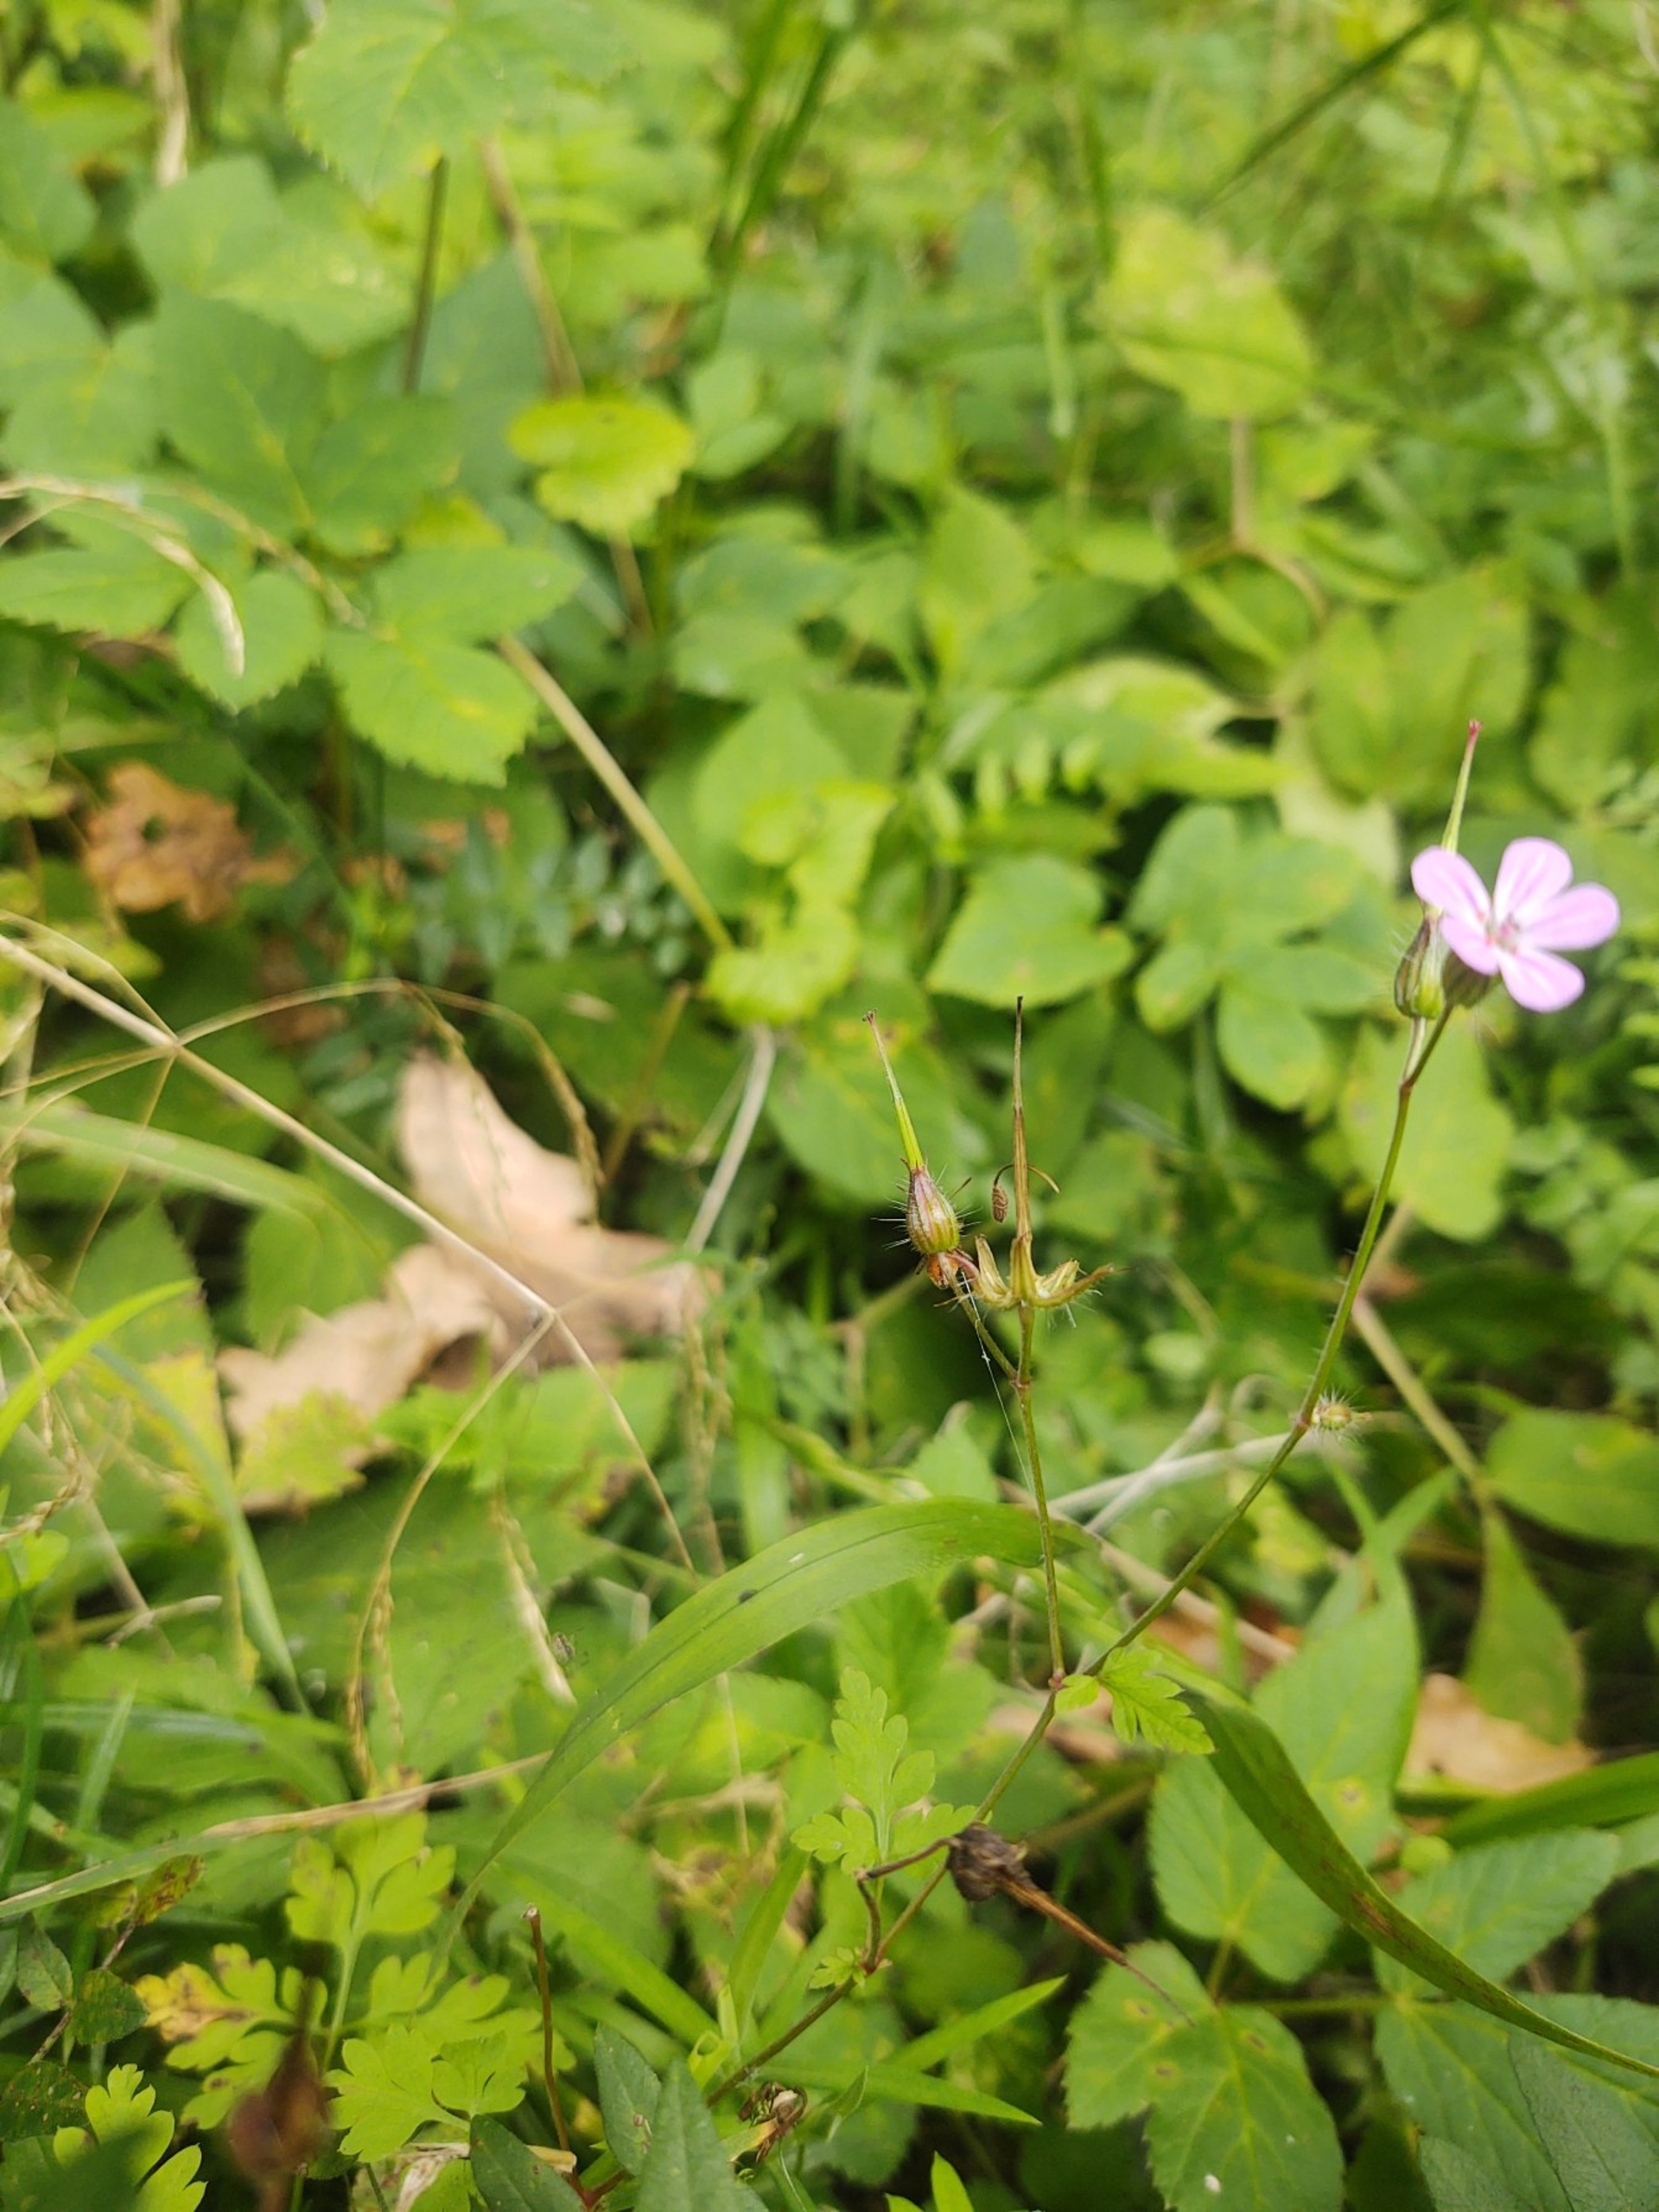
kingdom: Plantae
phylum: Tracheophyta
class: Magnoliopsida
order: Geraniales
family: Geraniaceae
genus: Geranium
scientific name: Geranium robertianum
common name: Stinkende storkenæb
